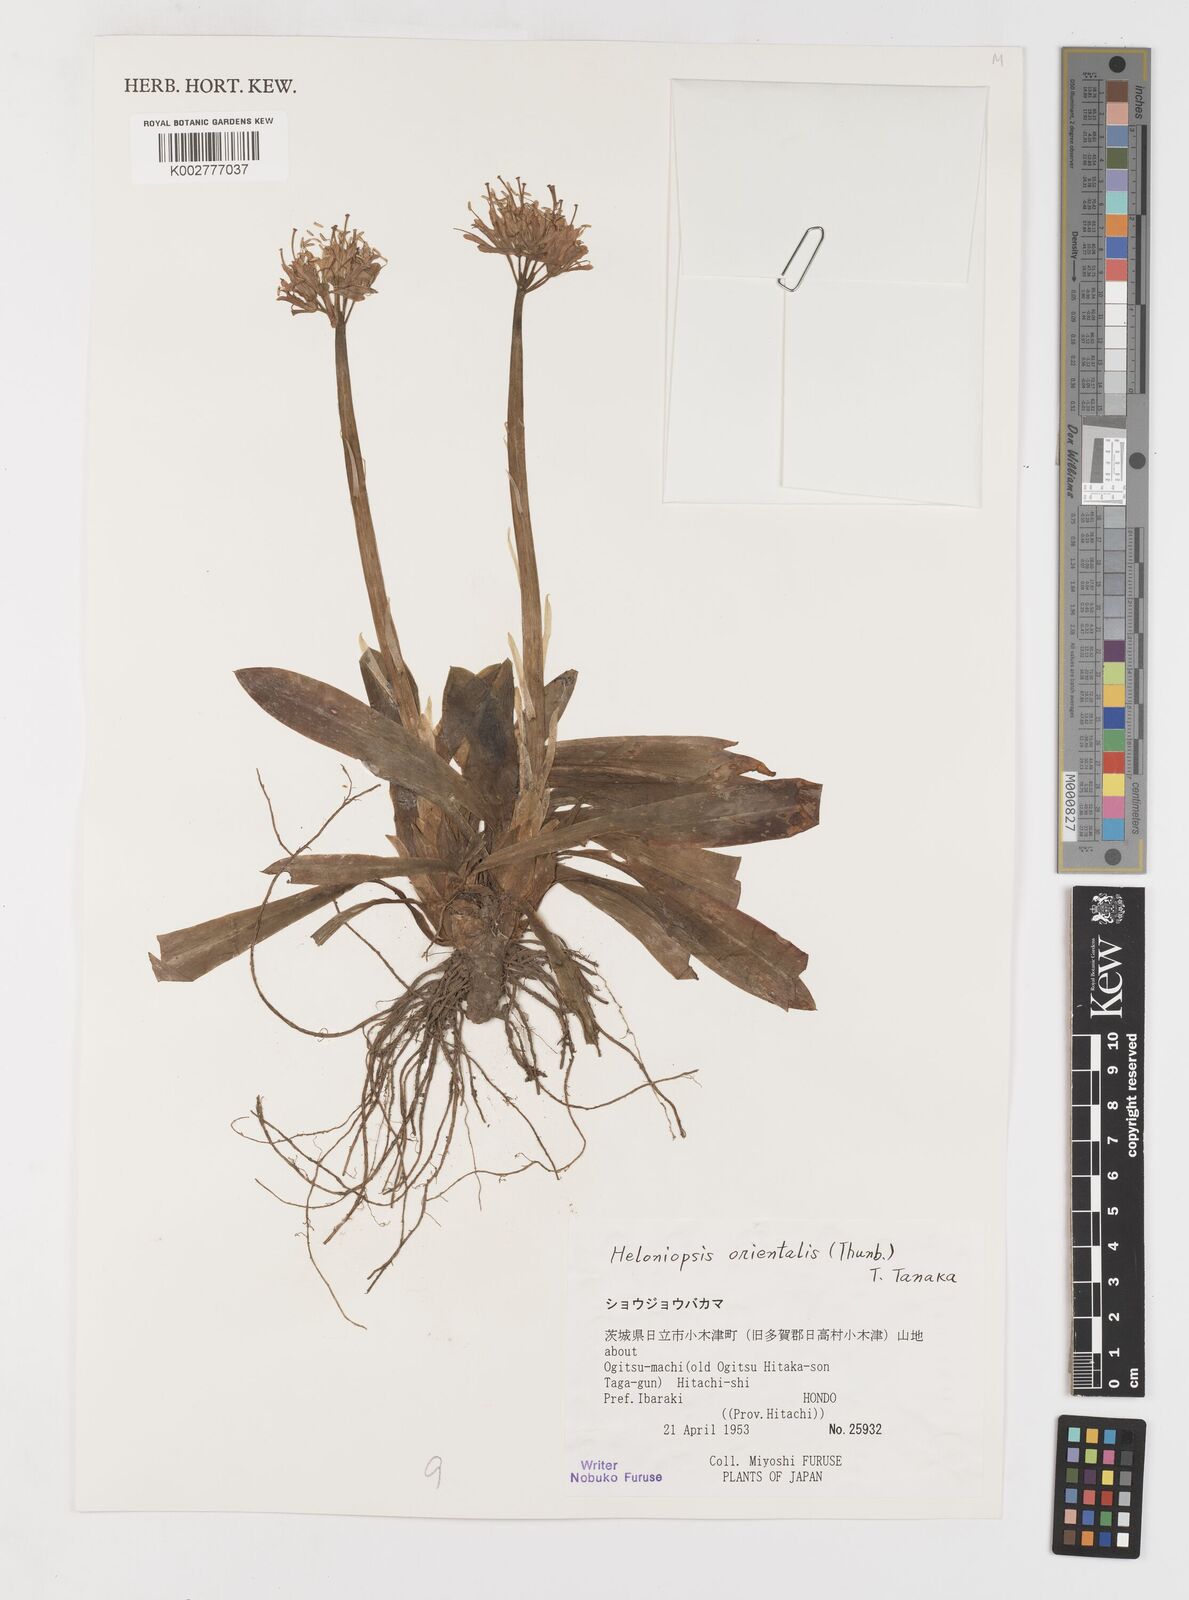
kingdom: Plantae
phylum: Tracheophyta
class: Liliopsida
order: Liliales
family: Melanthiaceae
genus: Helonias
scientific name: Helonias orientalis
